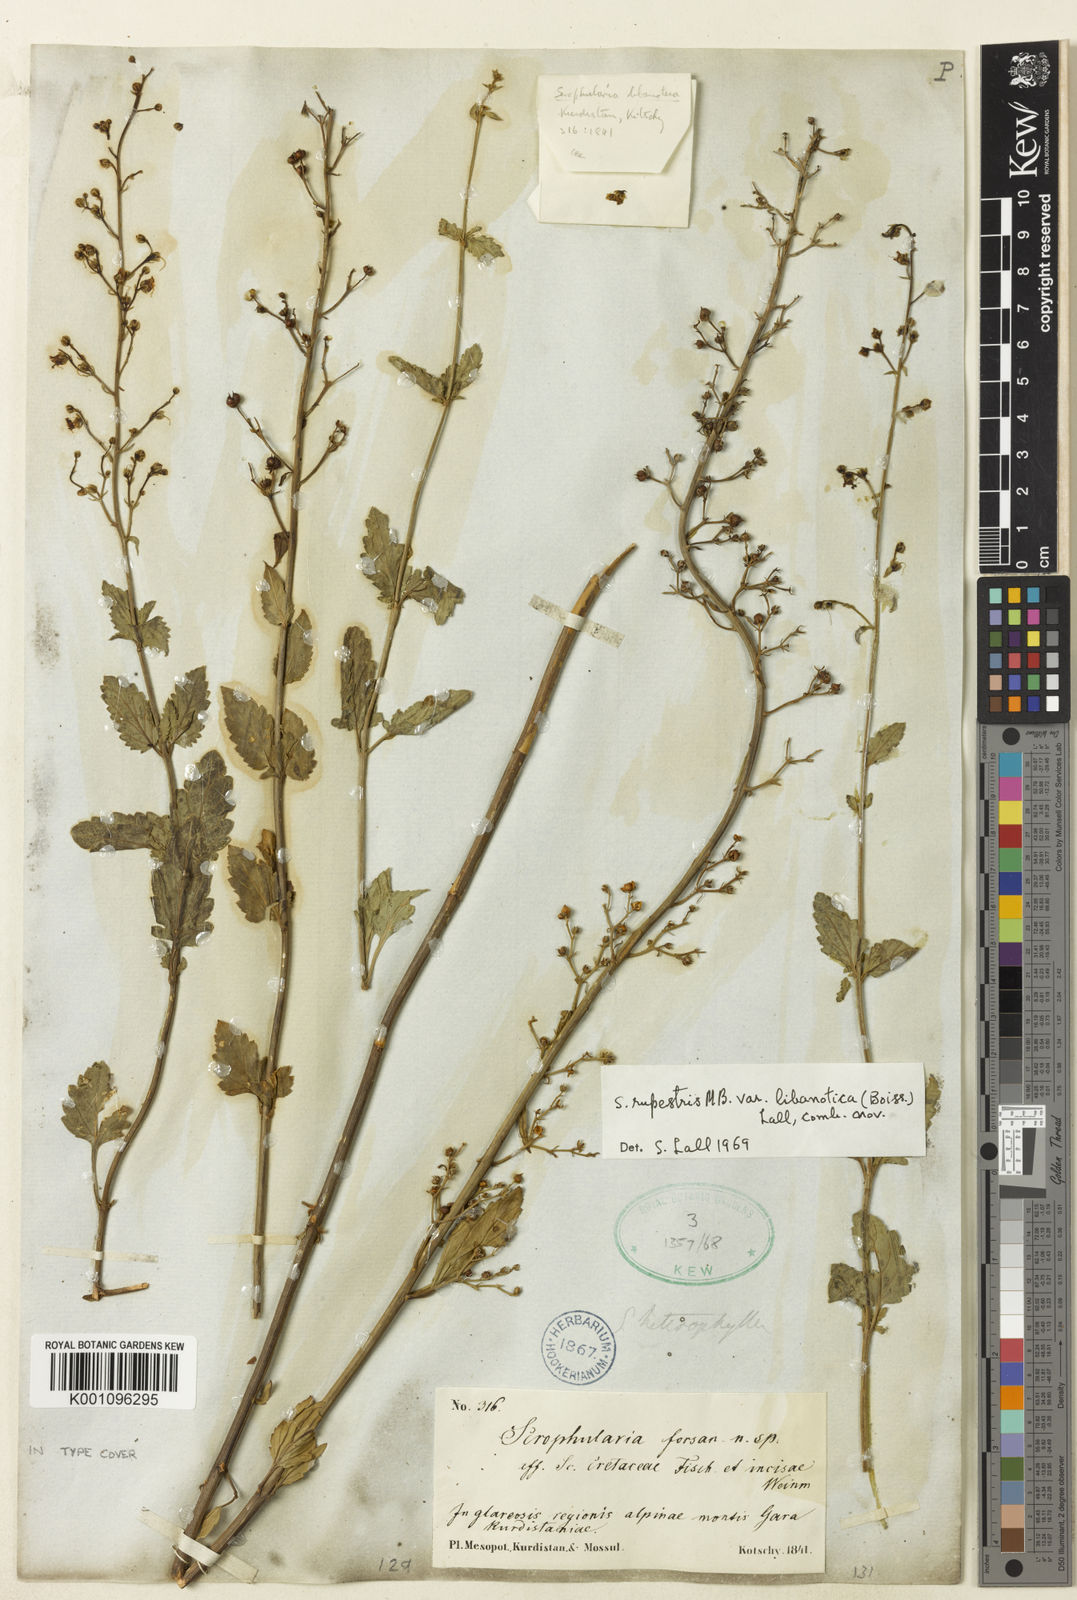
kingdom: Plantae
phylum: Tracheophyta
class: Magnoliopsida
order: Lamiales
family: Scrophulariaceae
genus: Scrophularia
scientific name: Scrophularia libanotica
